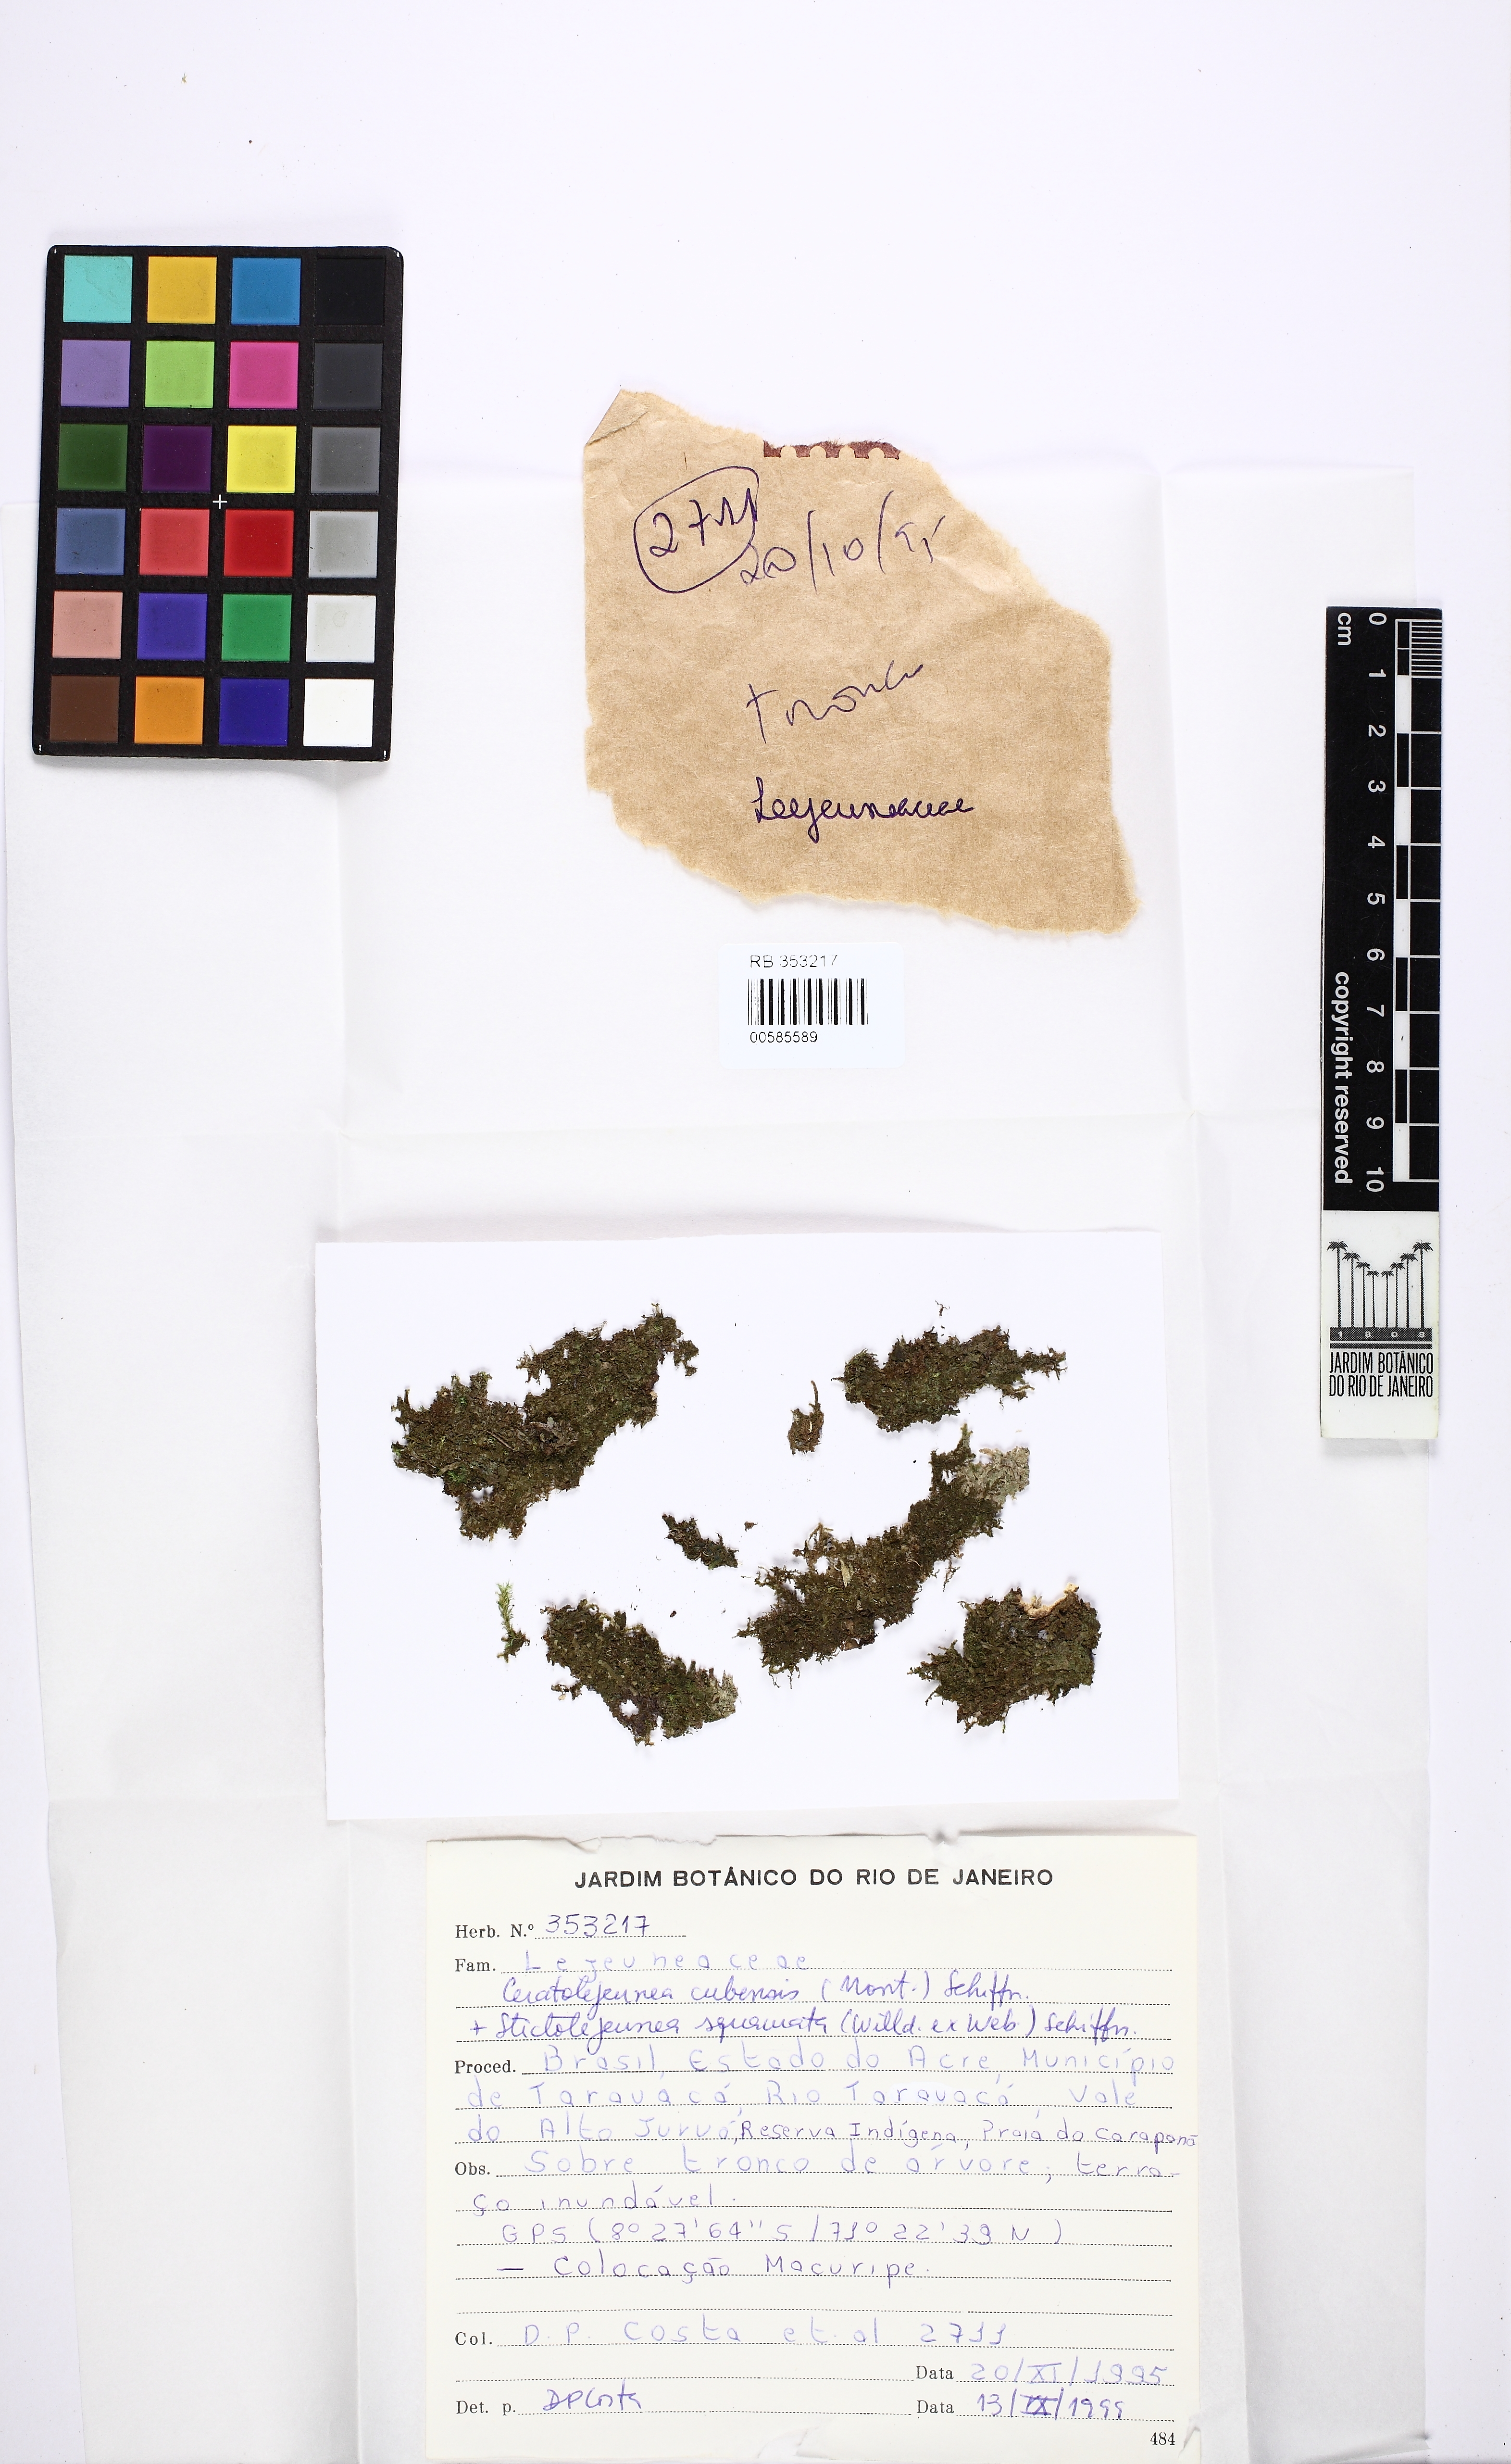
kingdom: Plantae
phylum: Marchantiophyta
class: Jungermanniopsida
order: Porellales
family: Lejeuneaceae
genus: Ceratolejeunea
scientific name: Ceratolejeunea cubensis
